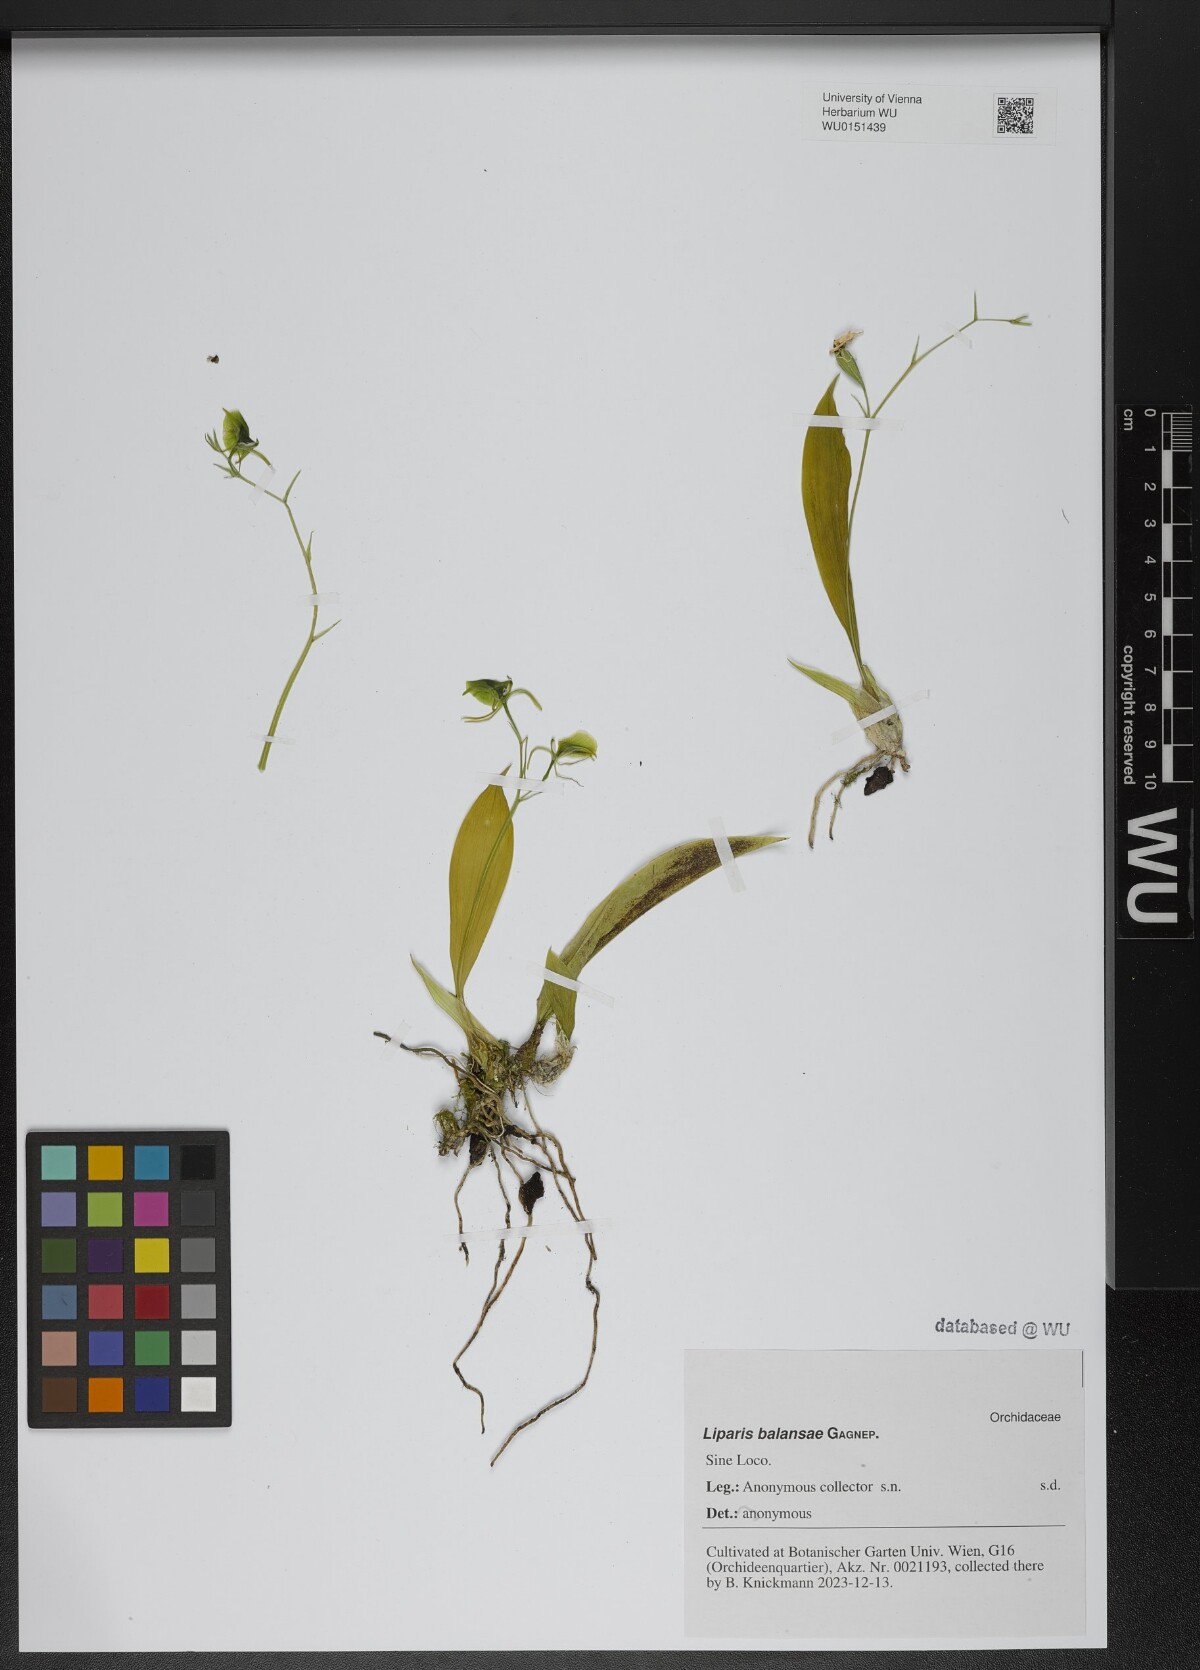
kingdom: Plantae
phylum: Tracheophyta
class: Liliopsida
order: Asparagales
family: Orchidaceae
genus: Liparis
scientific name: Liparis balansae
